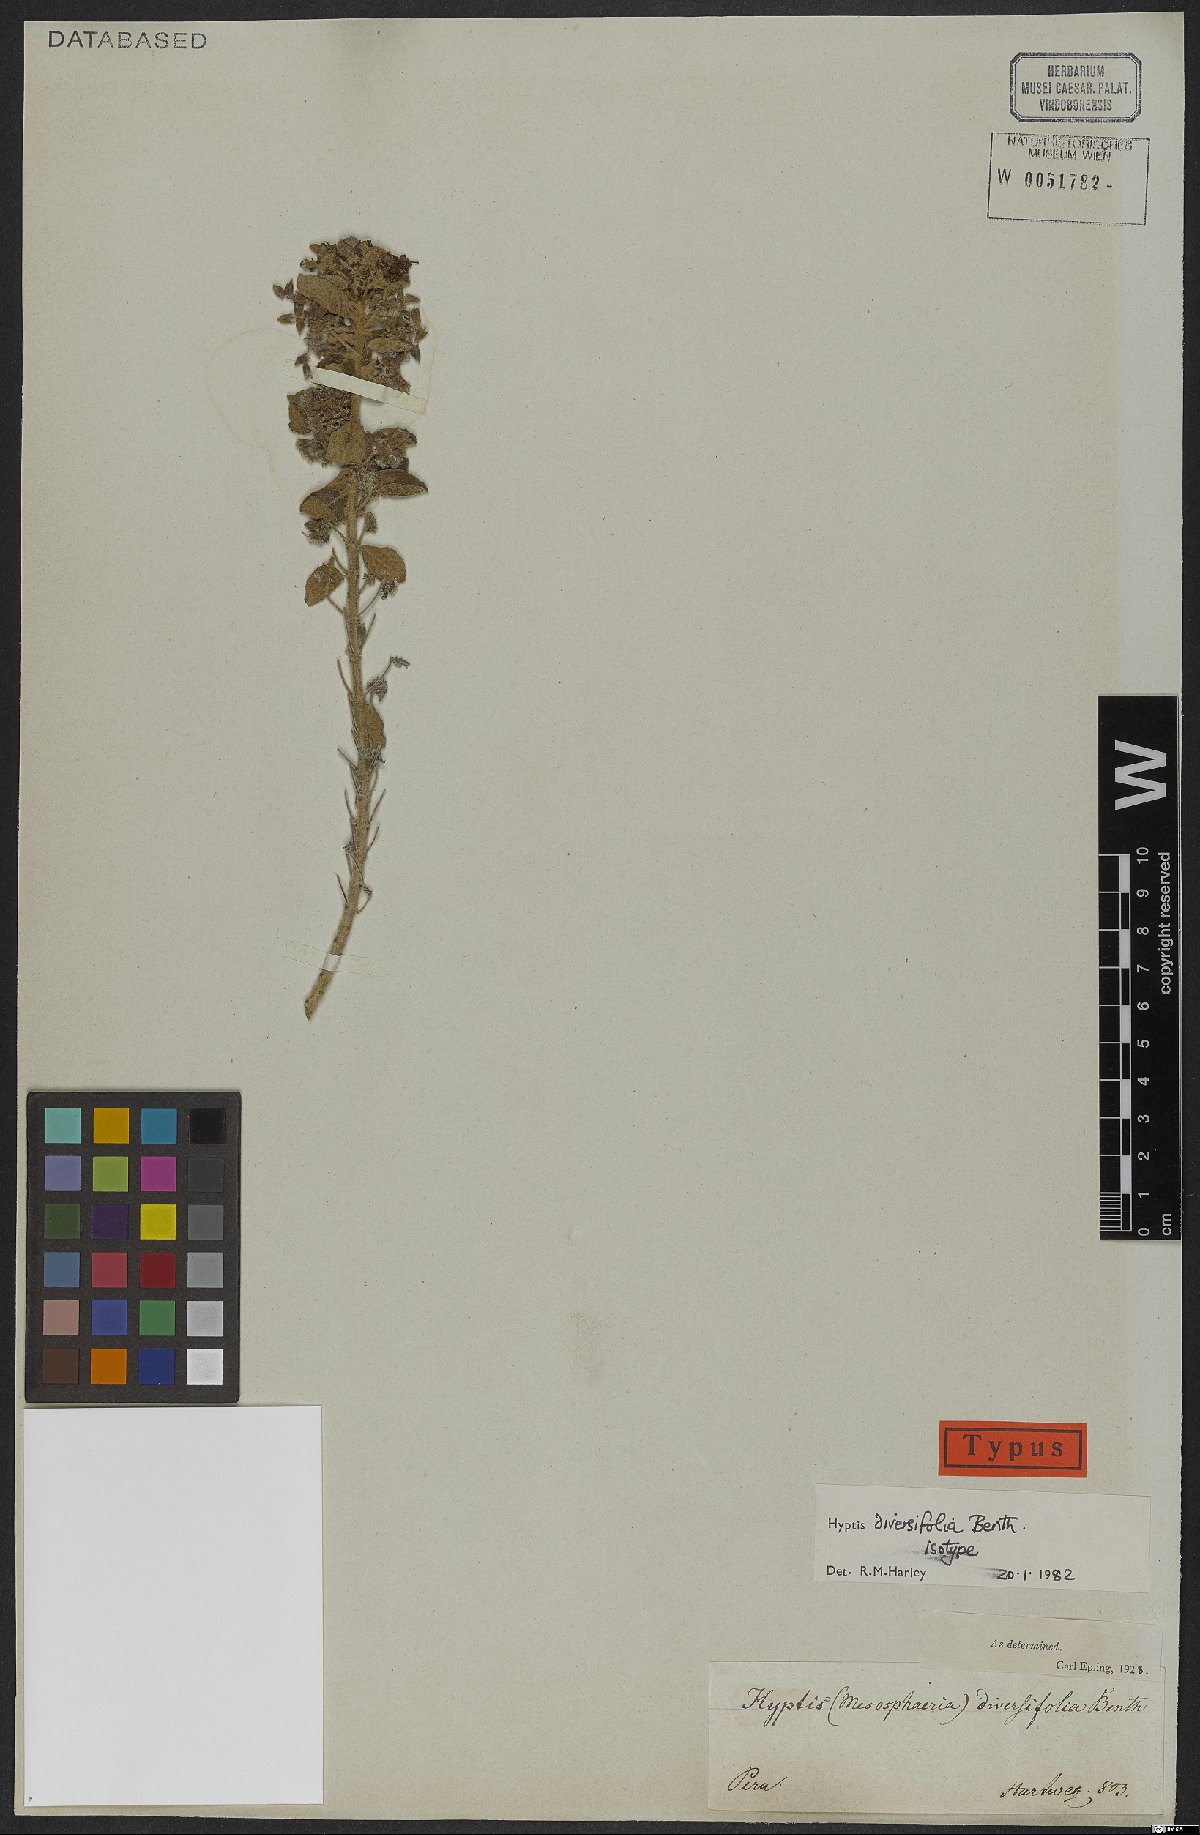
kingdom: Plantae
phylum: Tracheophyta
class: Magnoliopsida
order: Lamiales
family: Lamiaceae
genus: Mesosphaerum
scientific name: Mesosphaerum diversifolium
